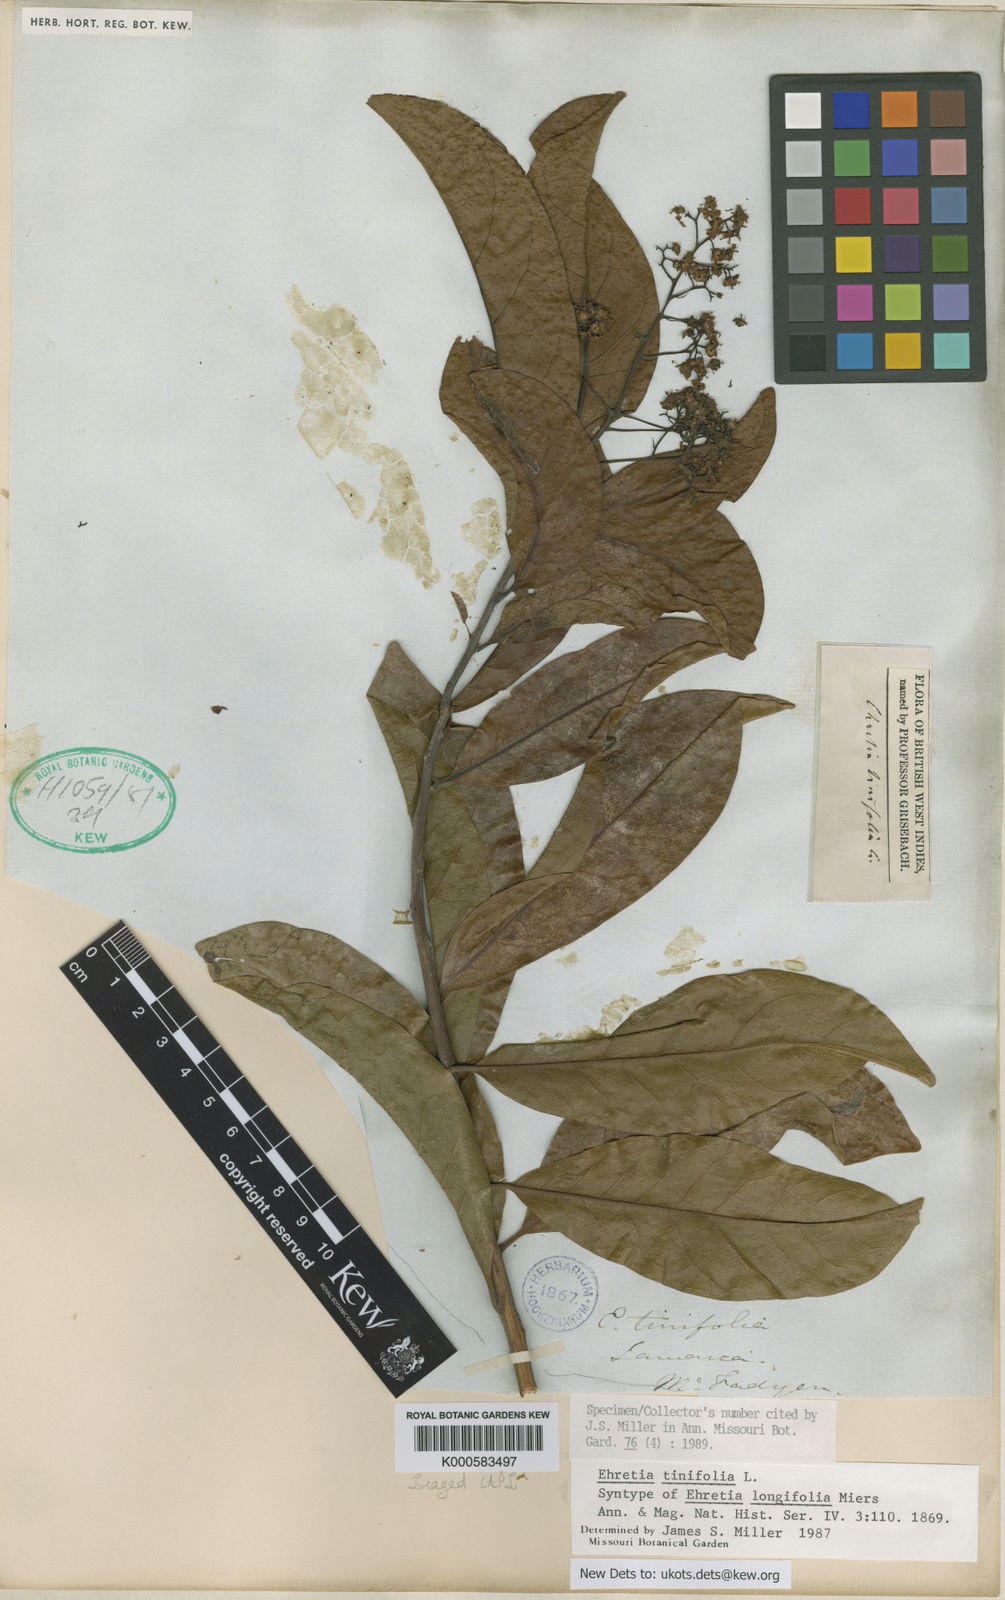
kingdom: Plantae
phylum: Tracheophyta
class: Magnoliopsida
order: Boraginales
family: Ehretiaceae
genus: Ehretia
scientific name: Ehretia tinifolia
